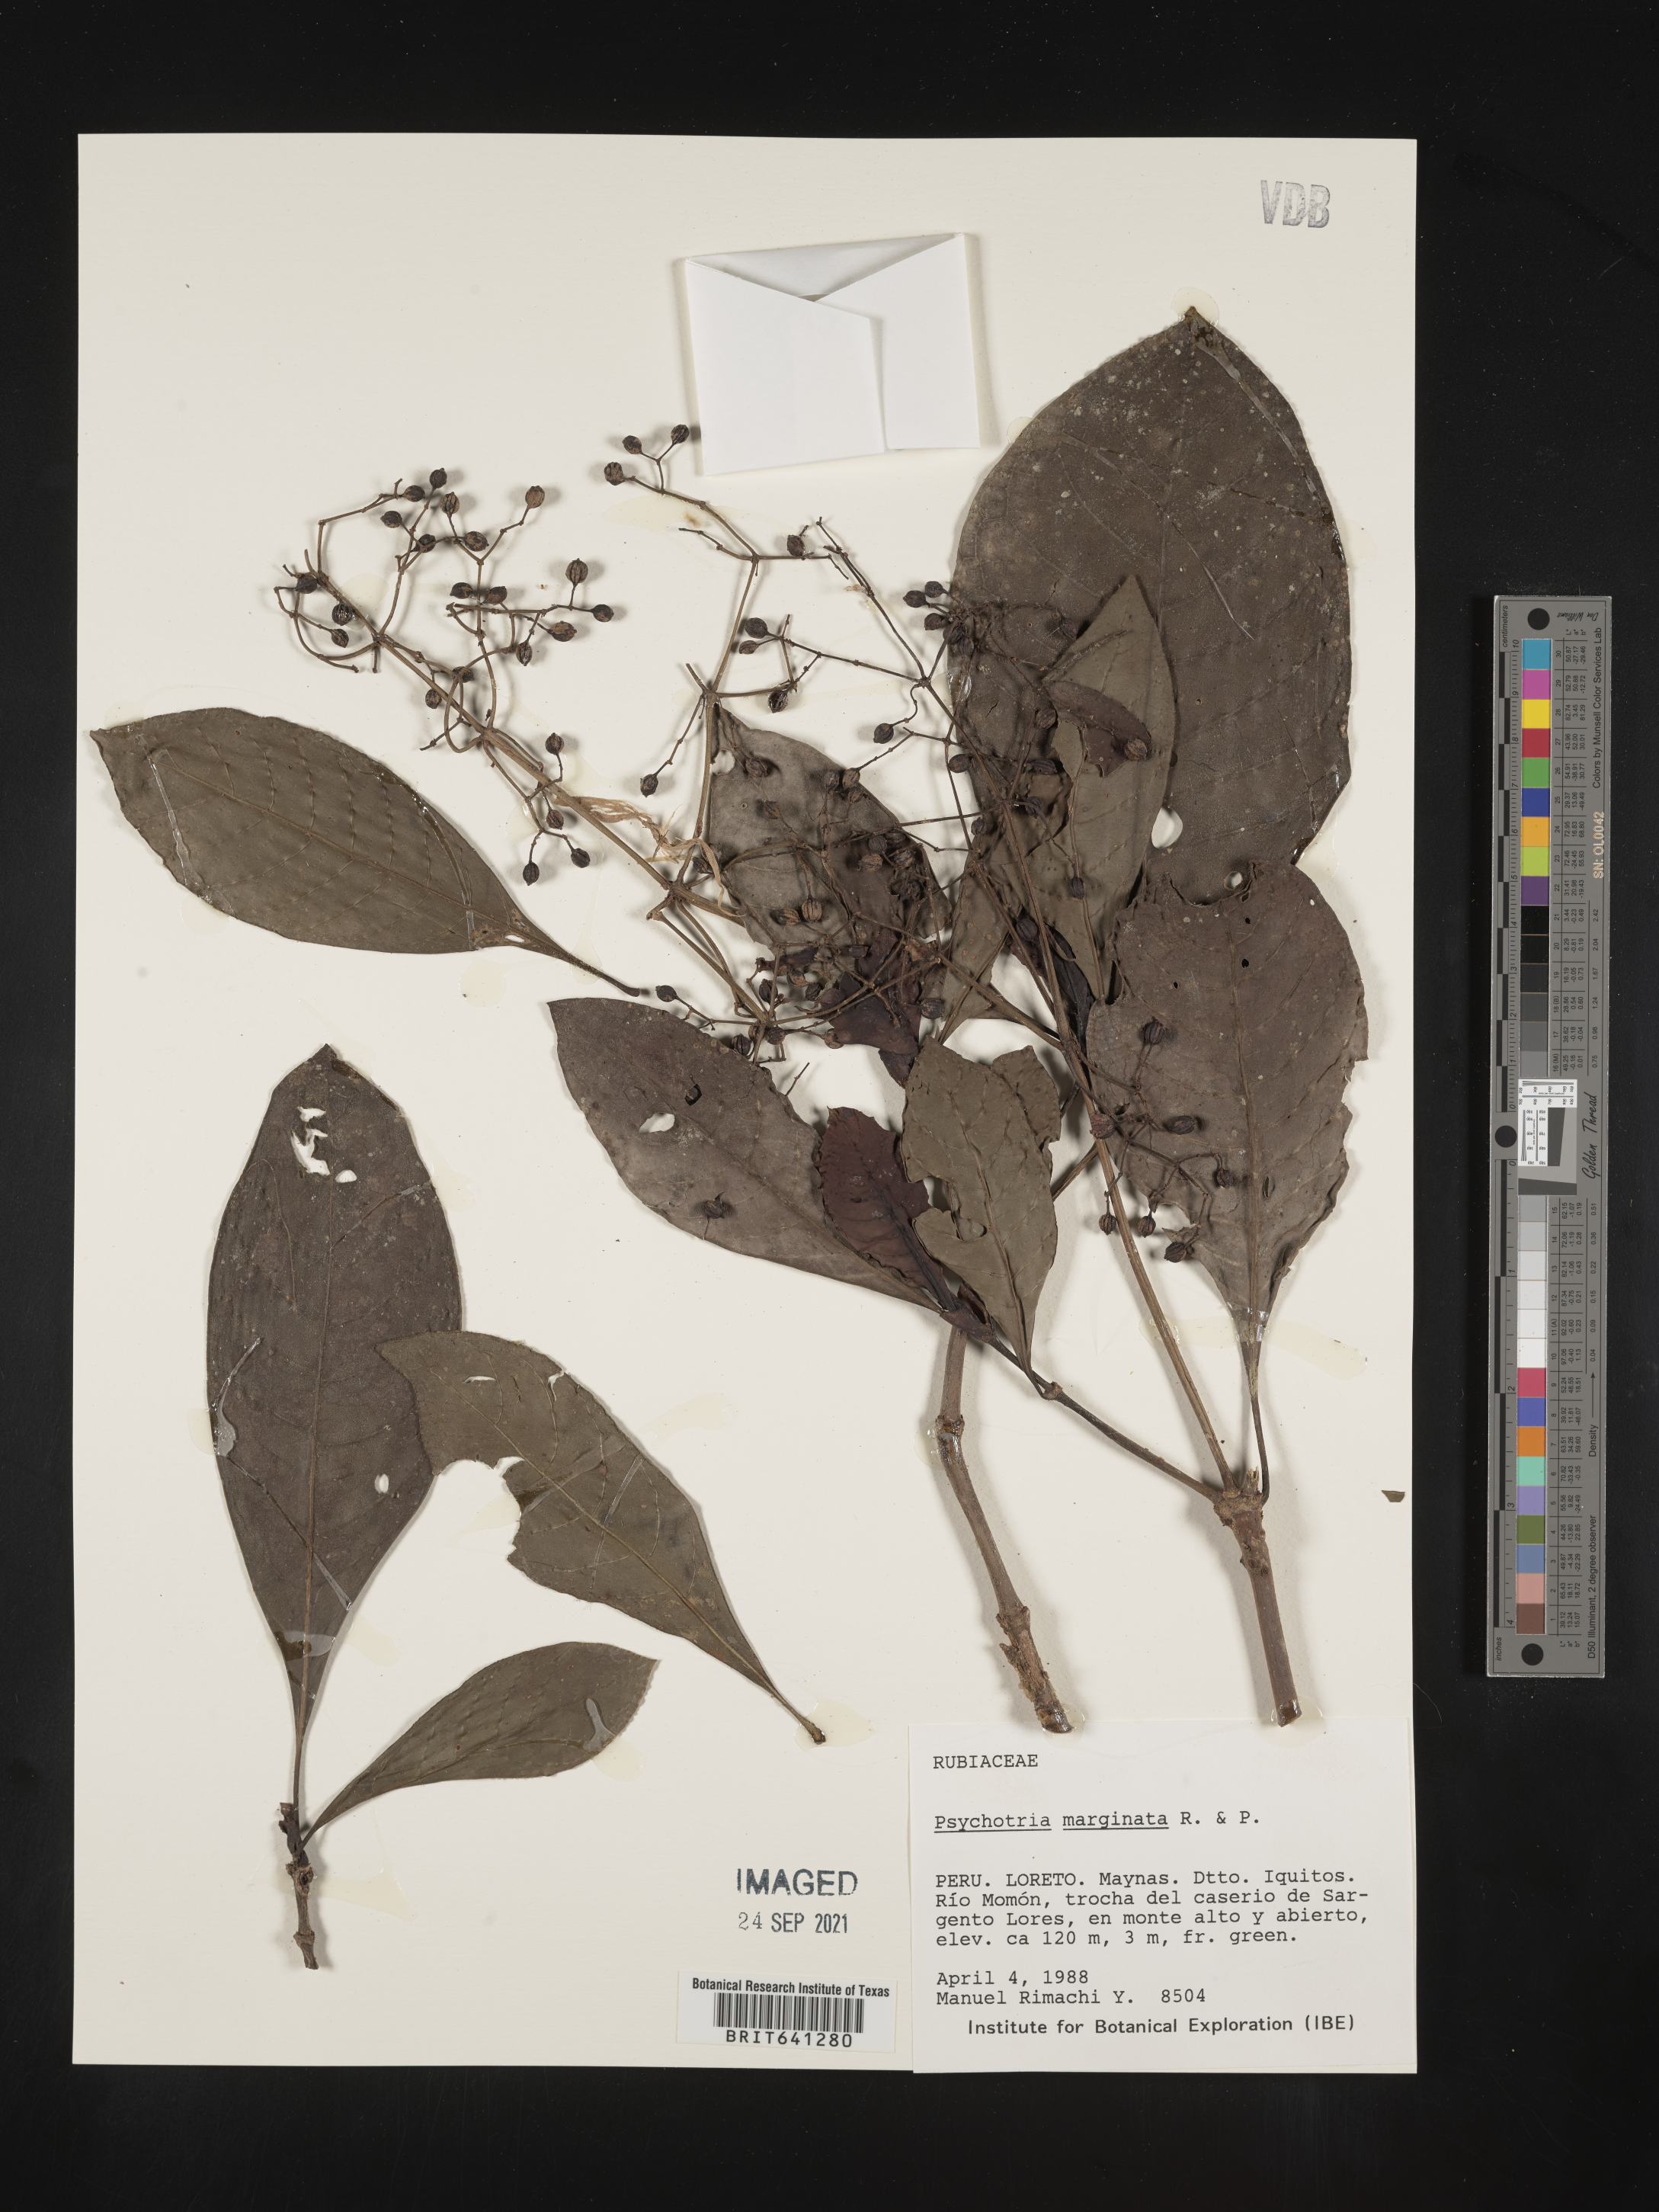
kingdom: Plantae
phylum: Tracheophyta
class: Magnoliopsida
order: Gentianales
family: Rubiaceae
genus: Psychotria
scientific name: Psychotria
